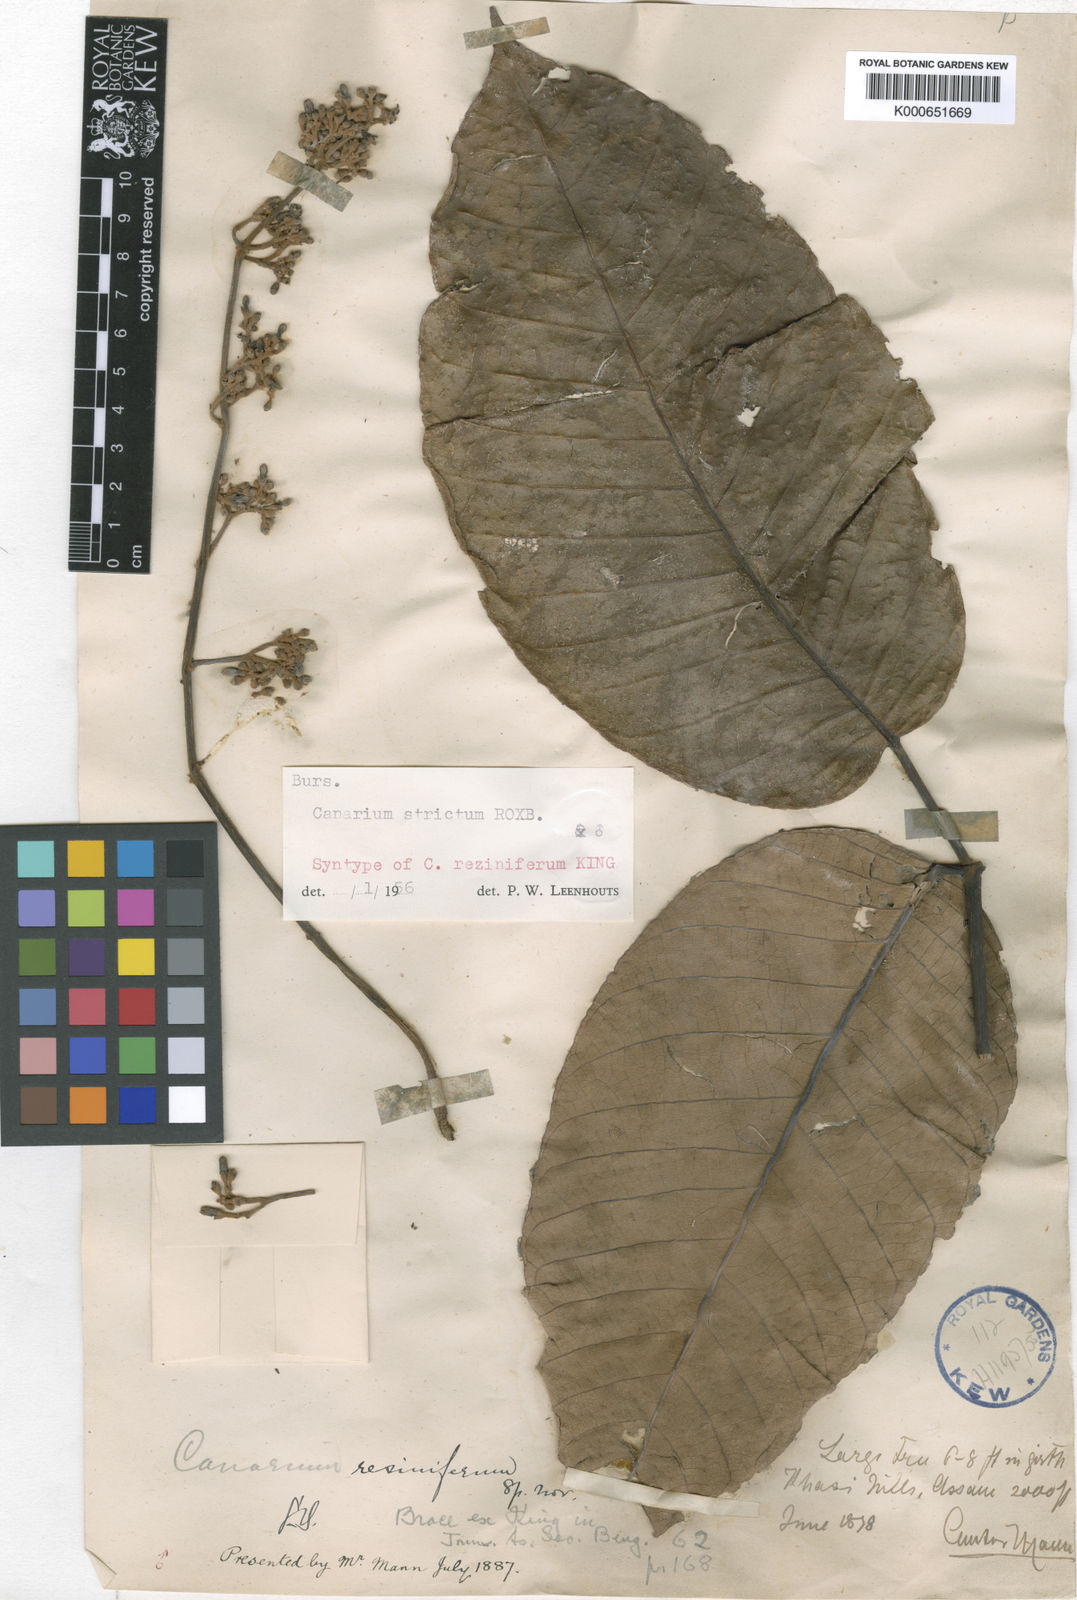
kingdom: Plantae
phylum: Tracheophyta
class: Magnoliopsida
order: Sapindales
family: Burseraceae
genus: Canarium
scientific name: Canarium strictum
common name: Indian white-mahogany
